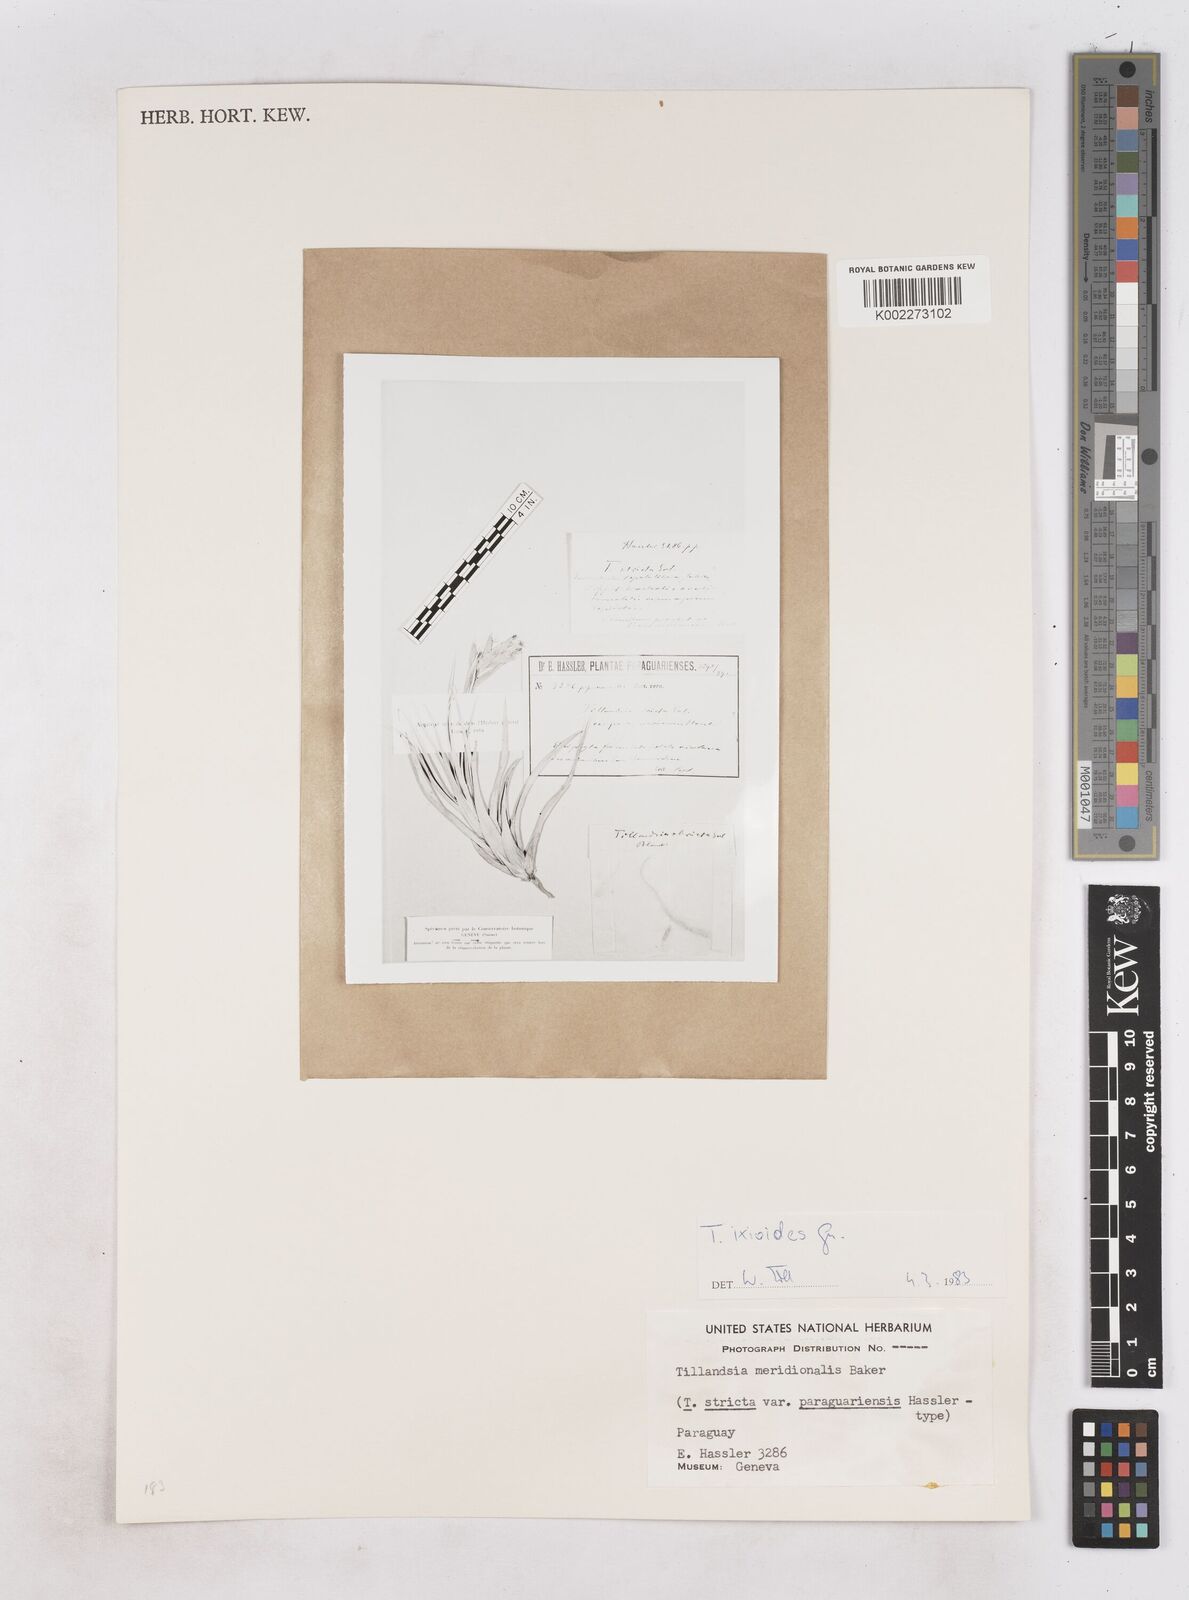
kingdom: Plantae
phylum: Tracheophyta
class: Liliopsida
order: Poales
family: Bromeliaceae
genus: Tillandsia
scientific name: Tillandsia ixioides
